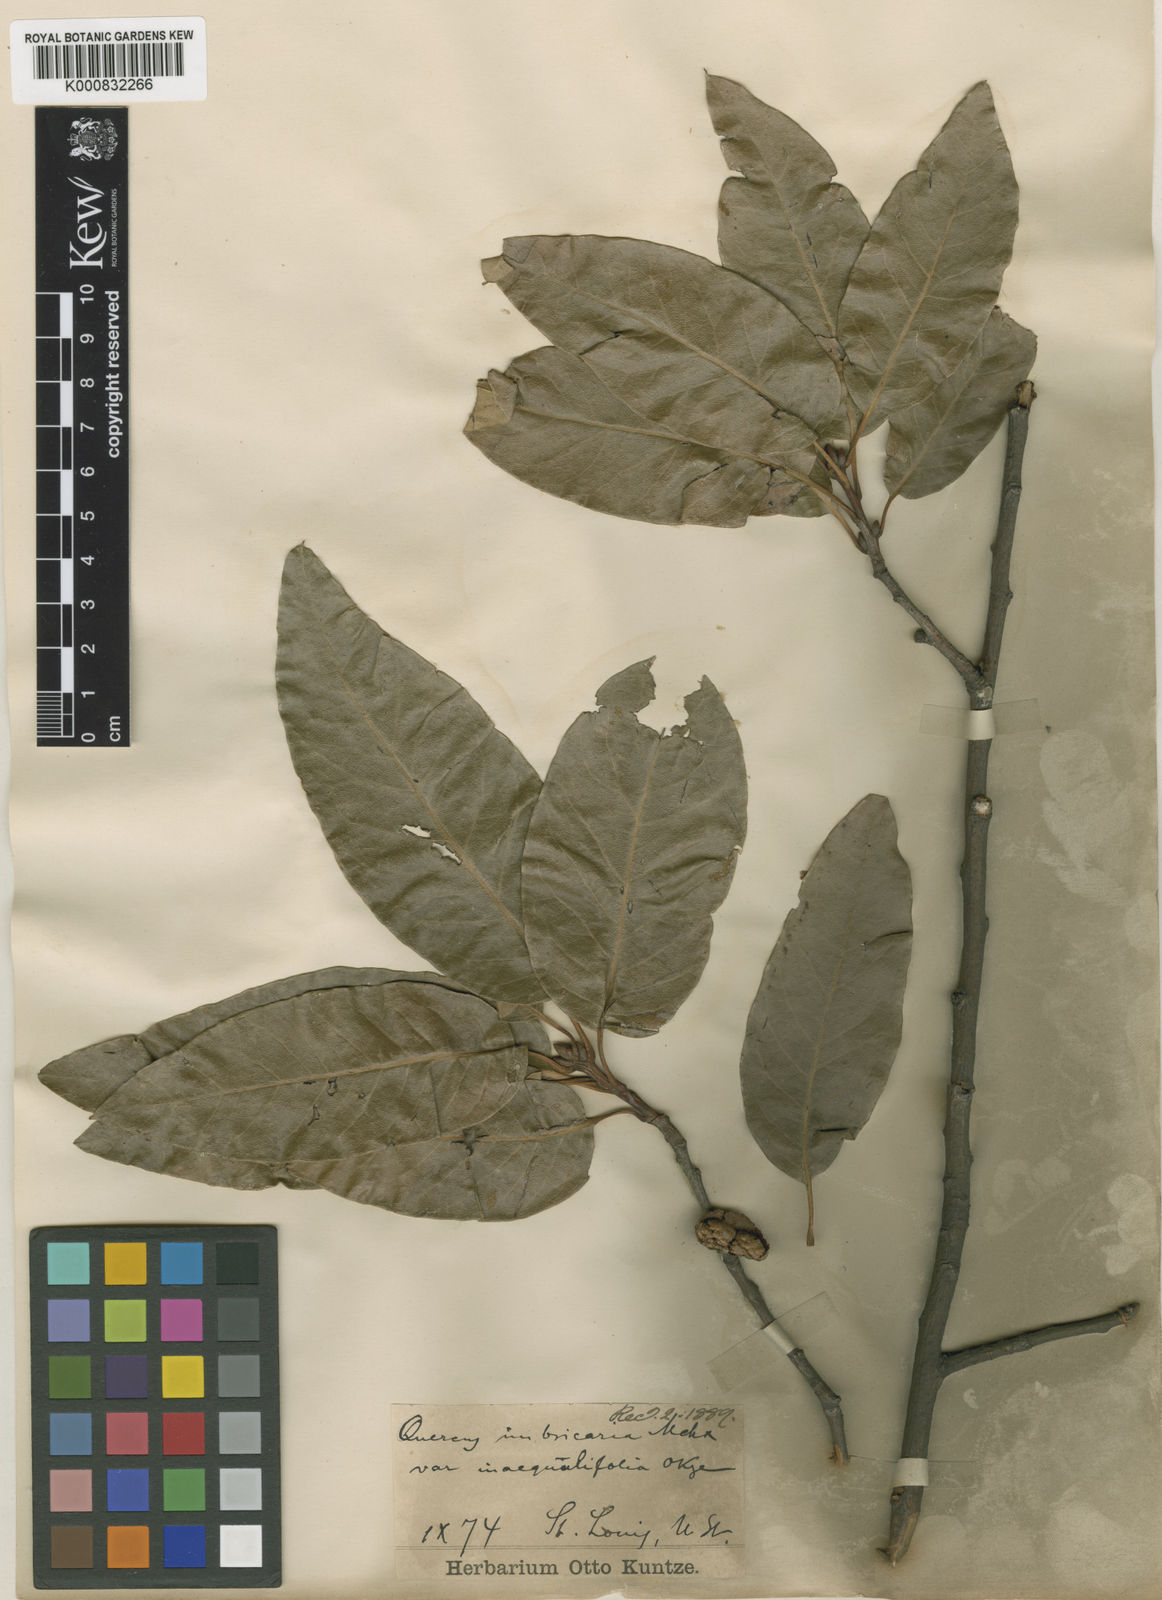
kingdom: Plantae
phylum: Tracheophyta
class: Magnoliopsida
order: Fagales
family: Fagaceae
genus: Quercus
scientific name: Quercus imbricaria
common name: Shingle oak
